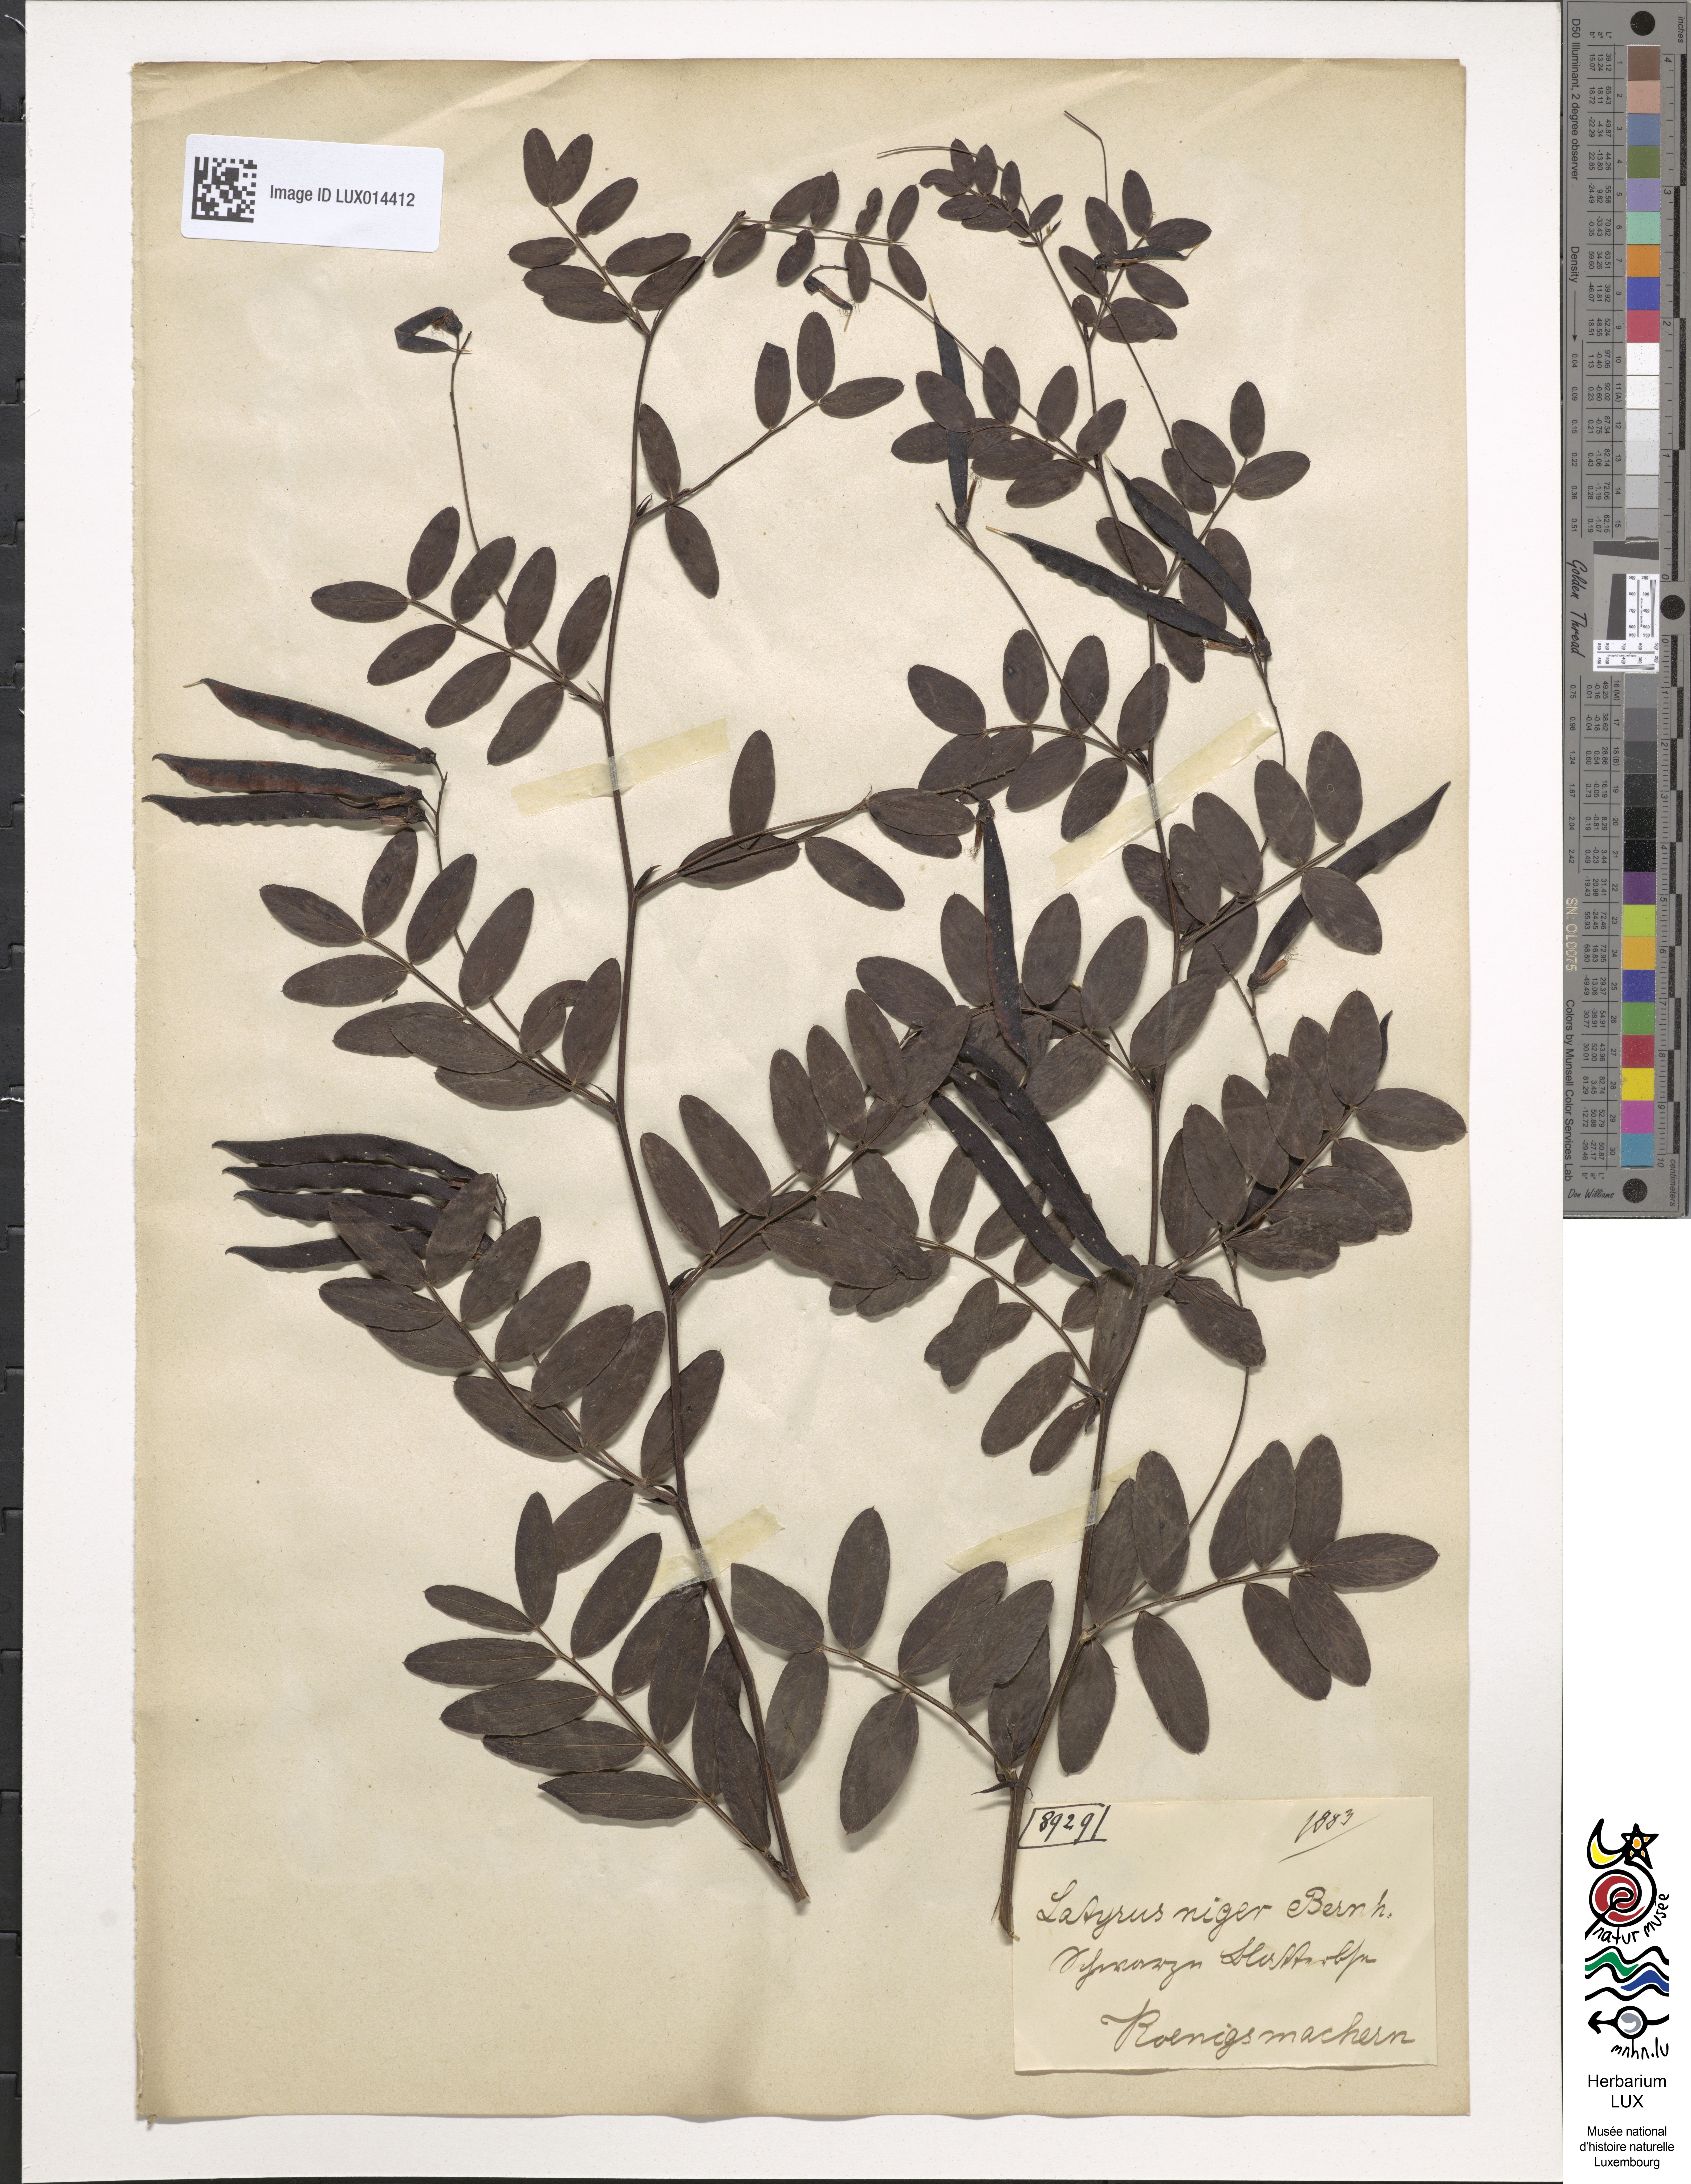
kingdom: Plantae
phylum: Tracheophyta
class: Magnoliopsida
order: Fabales
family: Fabaceae
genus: Lathyrus
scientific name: Lathyrus niger
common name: Black pea
